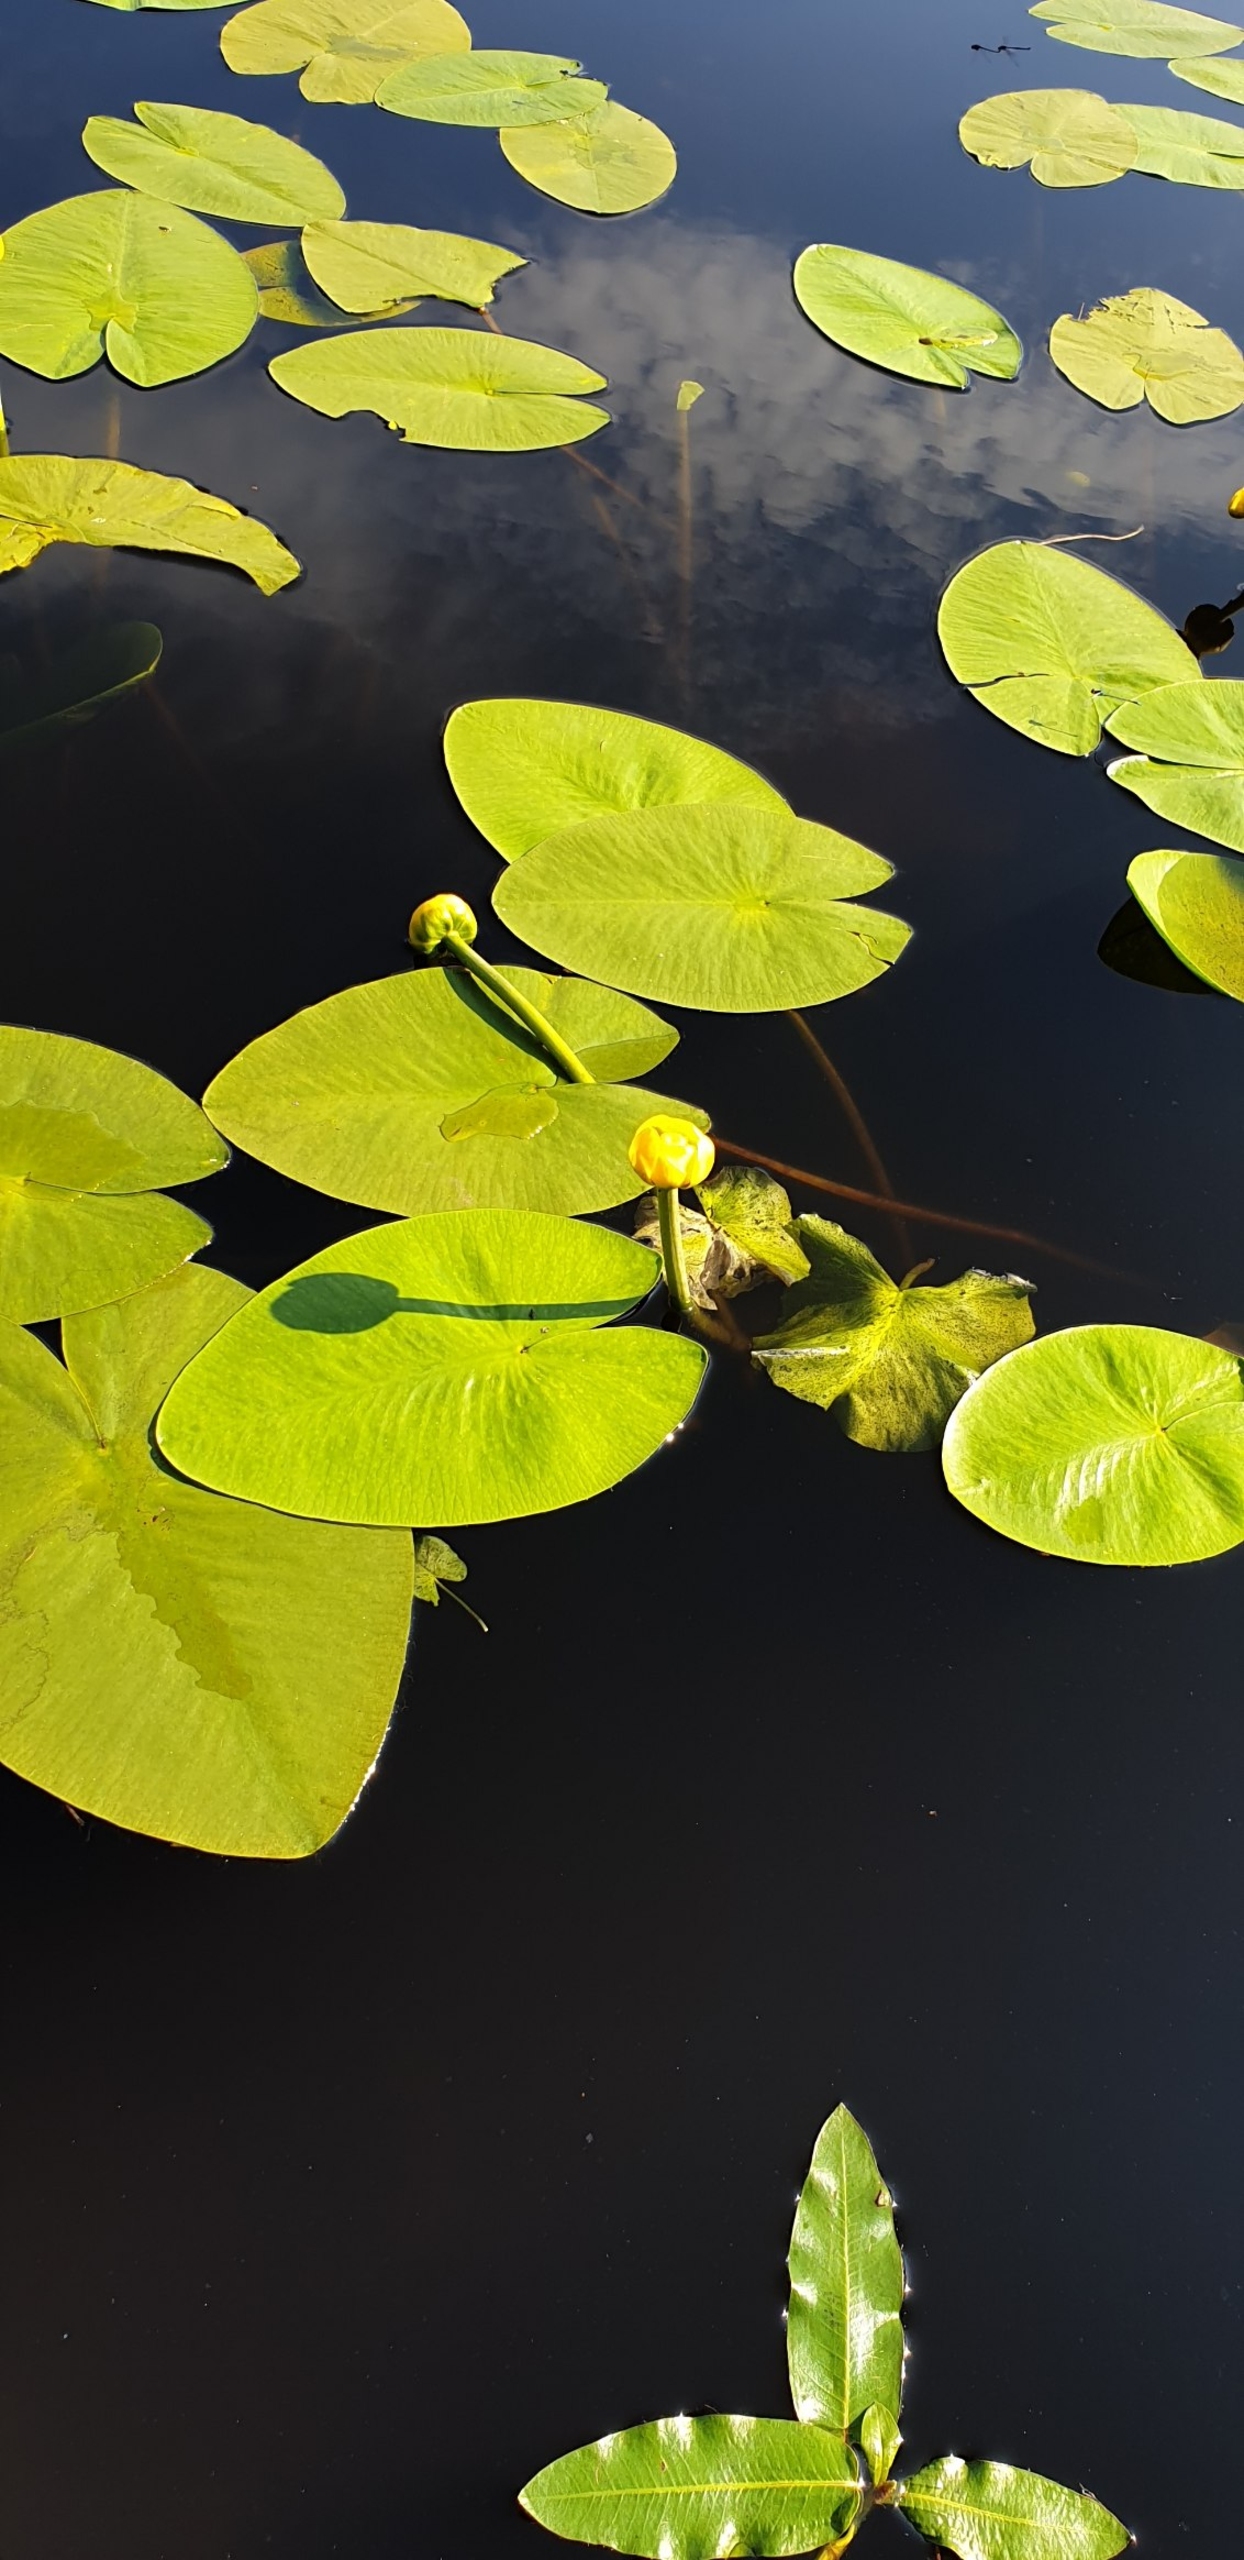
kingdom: Plantae
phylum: Tracheophyta
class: Magnoliopsida
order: Nymphaeales
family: Nymphaeaceae
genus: Nuphar
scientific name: Nuphar lutea
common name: Gul åkande
